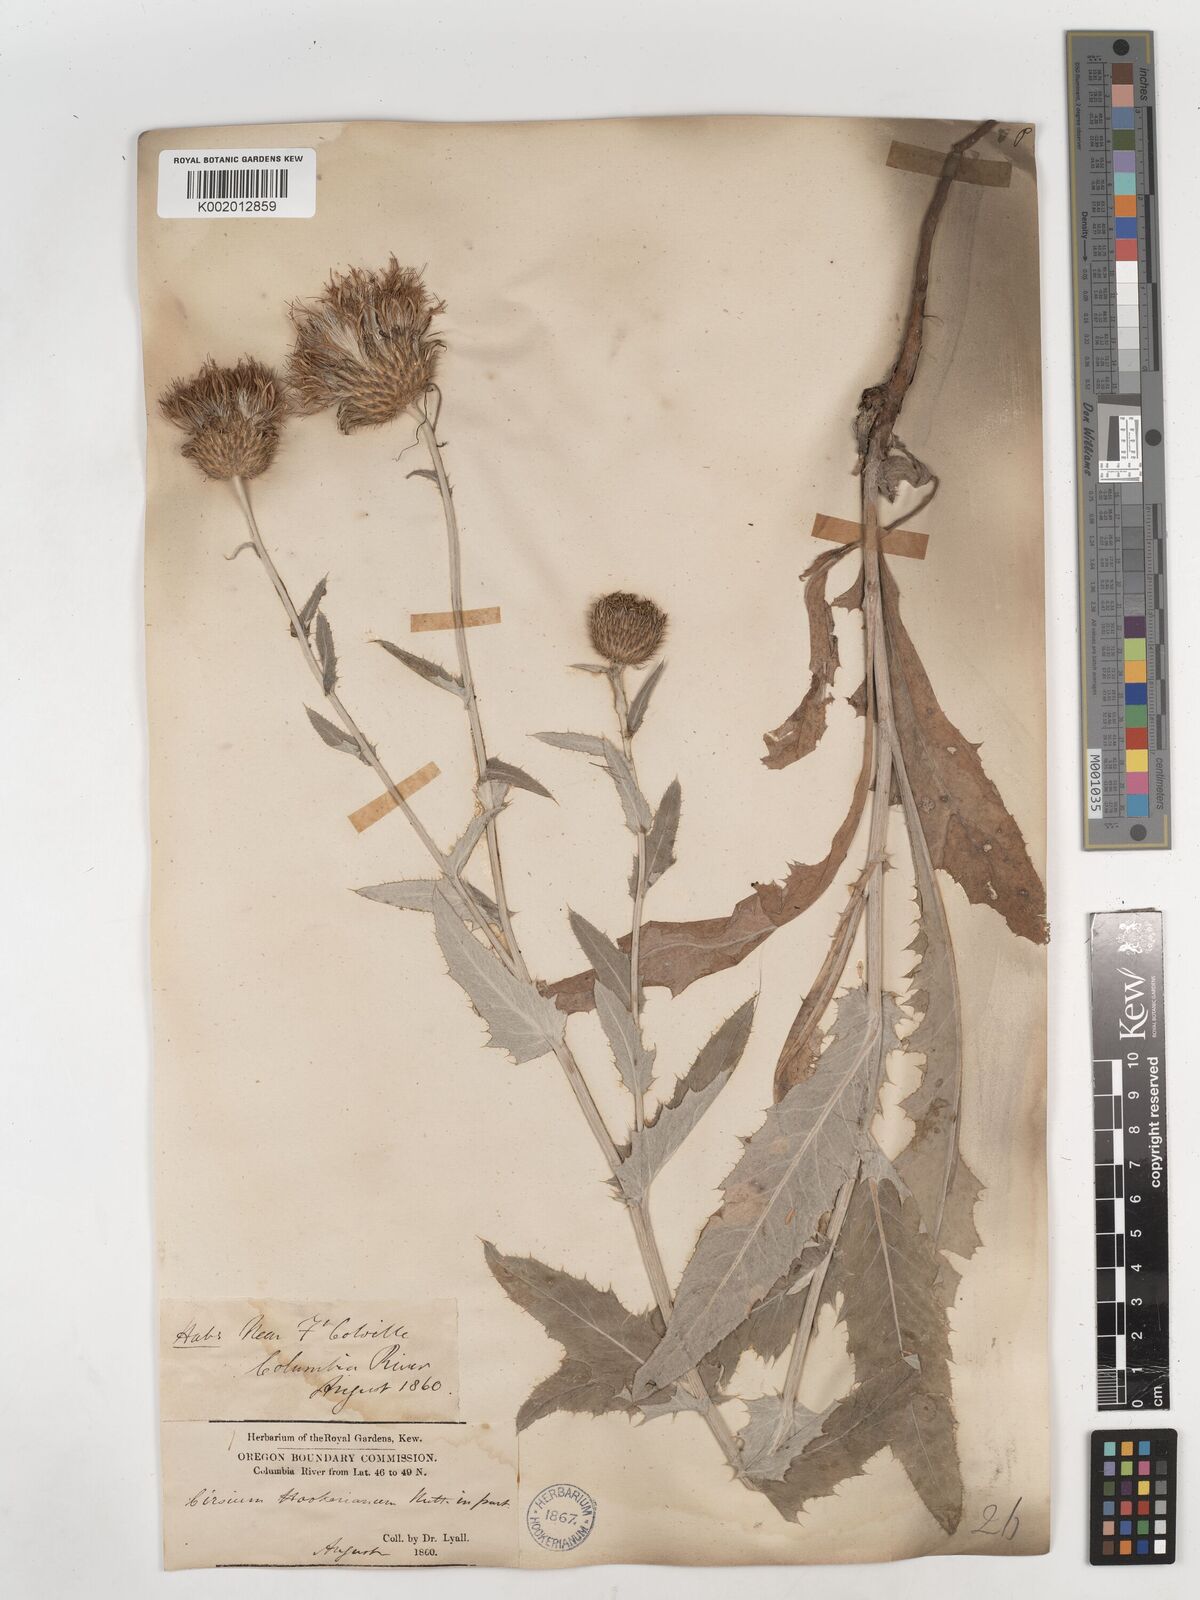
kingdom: Plantae
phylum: Tracheophyta
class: Magnoliopsida
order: Asterales
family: Asteraceae
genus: Cirsium
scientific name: Cirsium hookerianum
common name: Hooker's thistle
